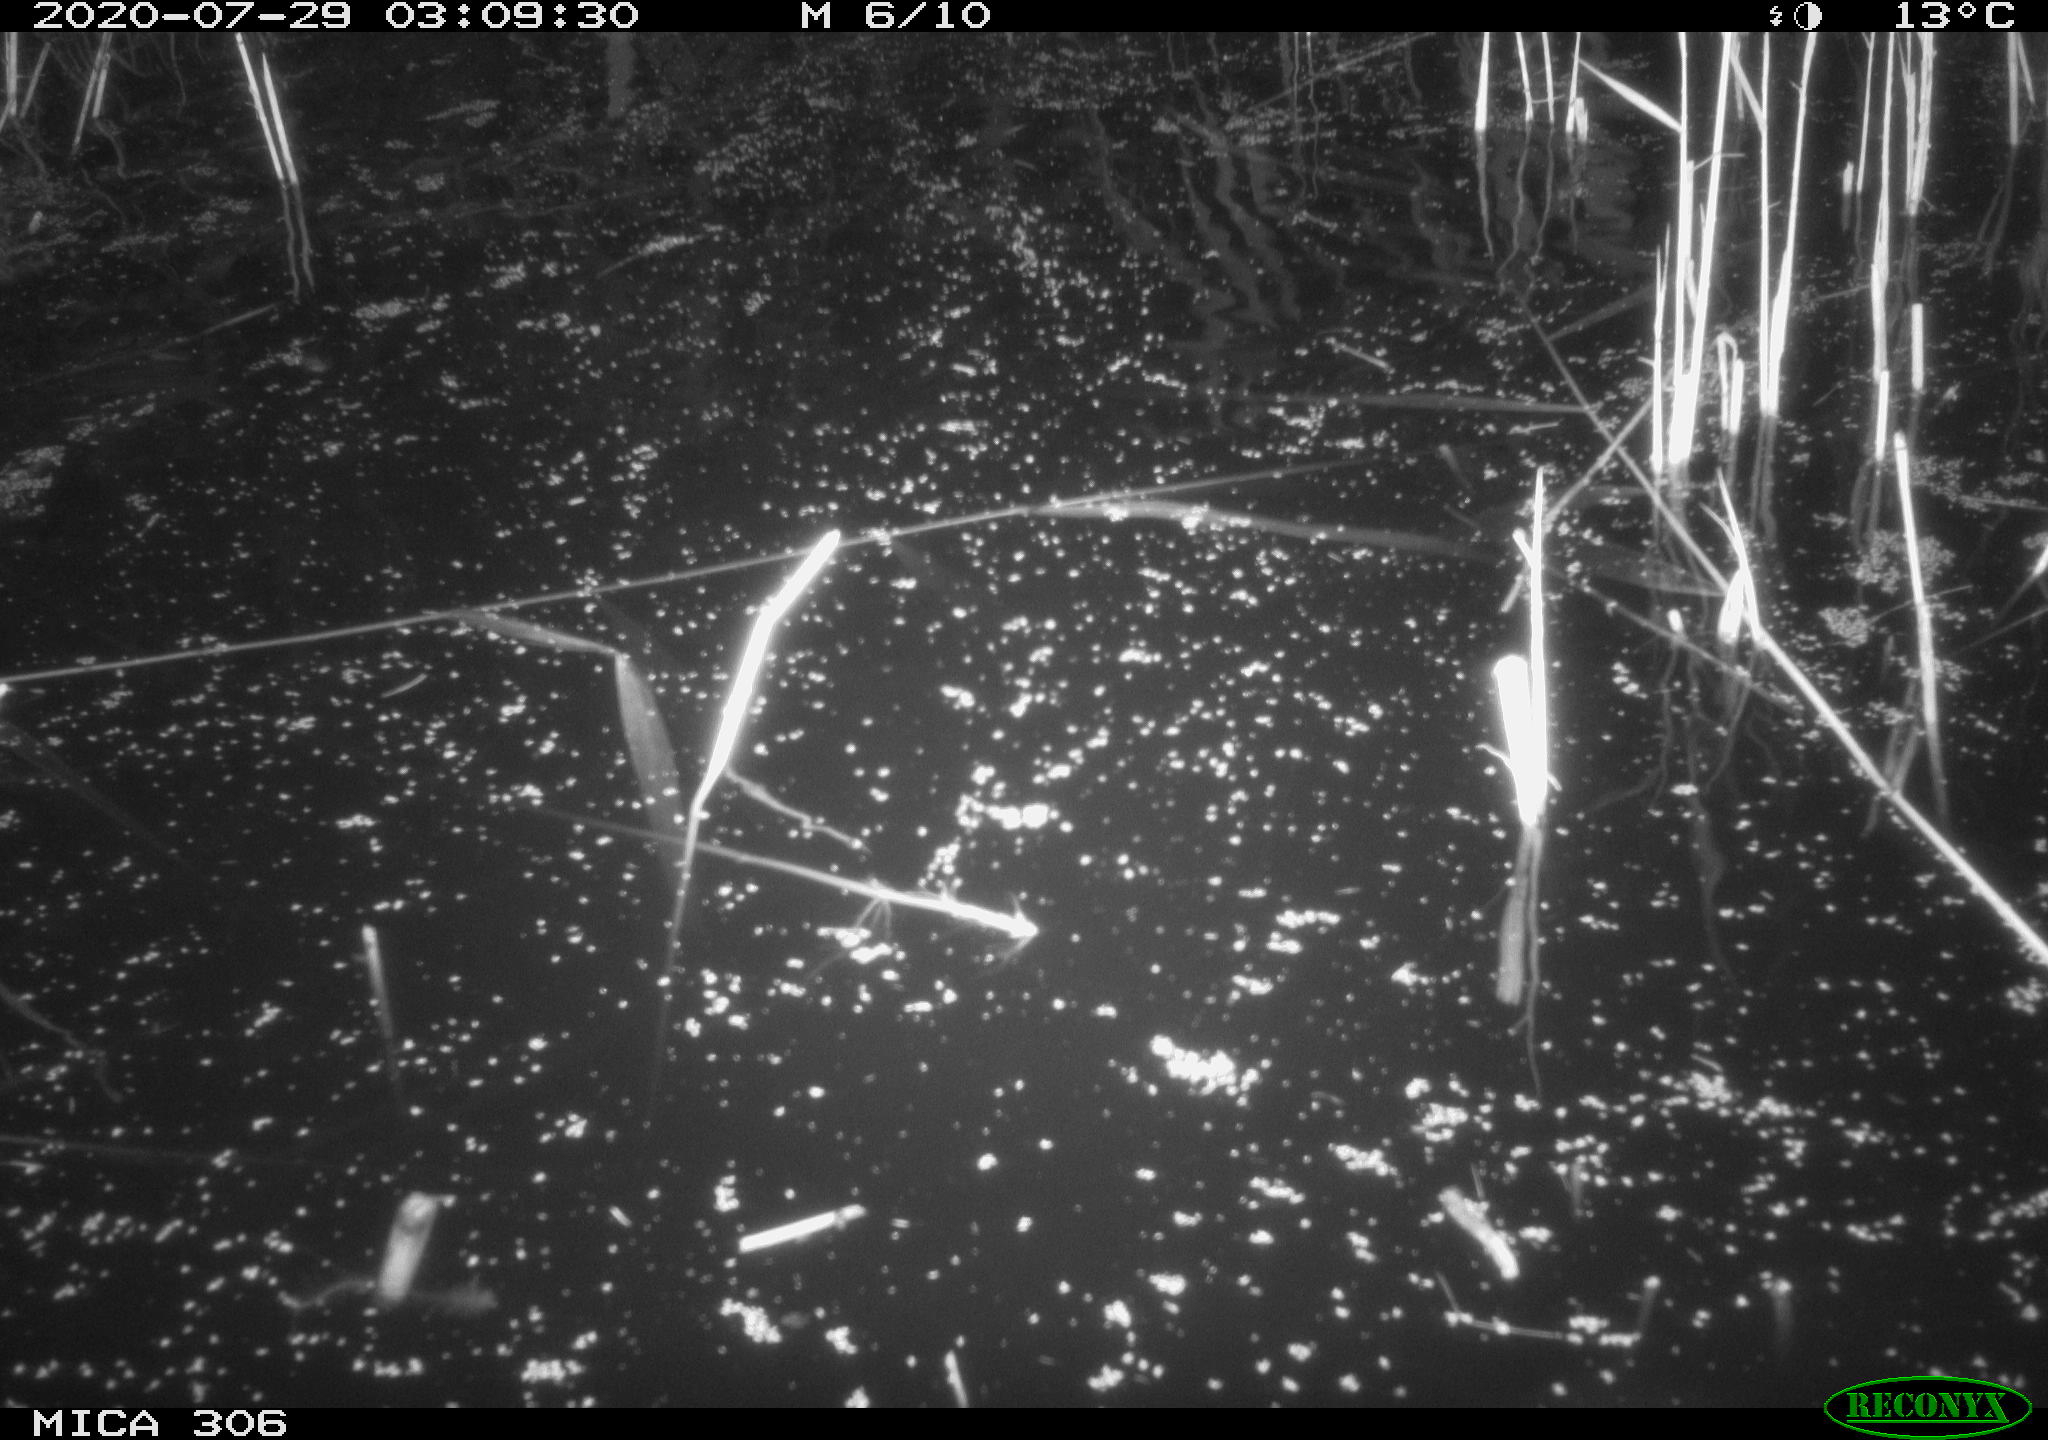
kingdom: Animalia
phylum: Chordata
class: Mammalia
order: Rodentia
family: Cricetidae
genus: Ondatra
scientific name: Ondatra zibethicus
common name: Muskrat
